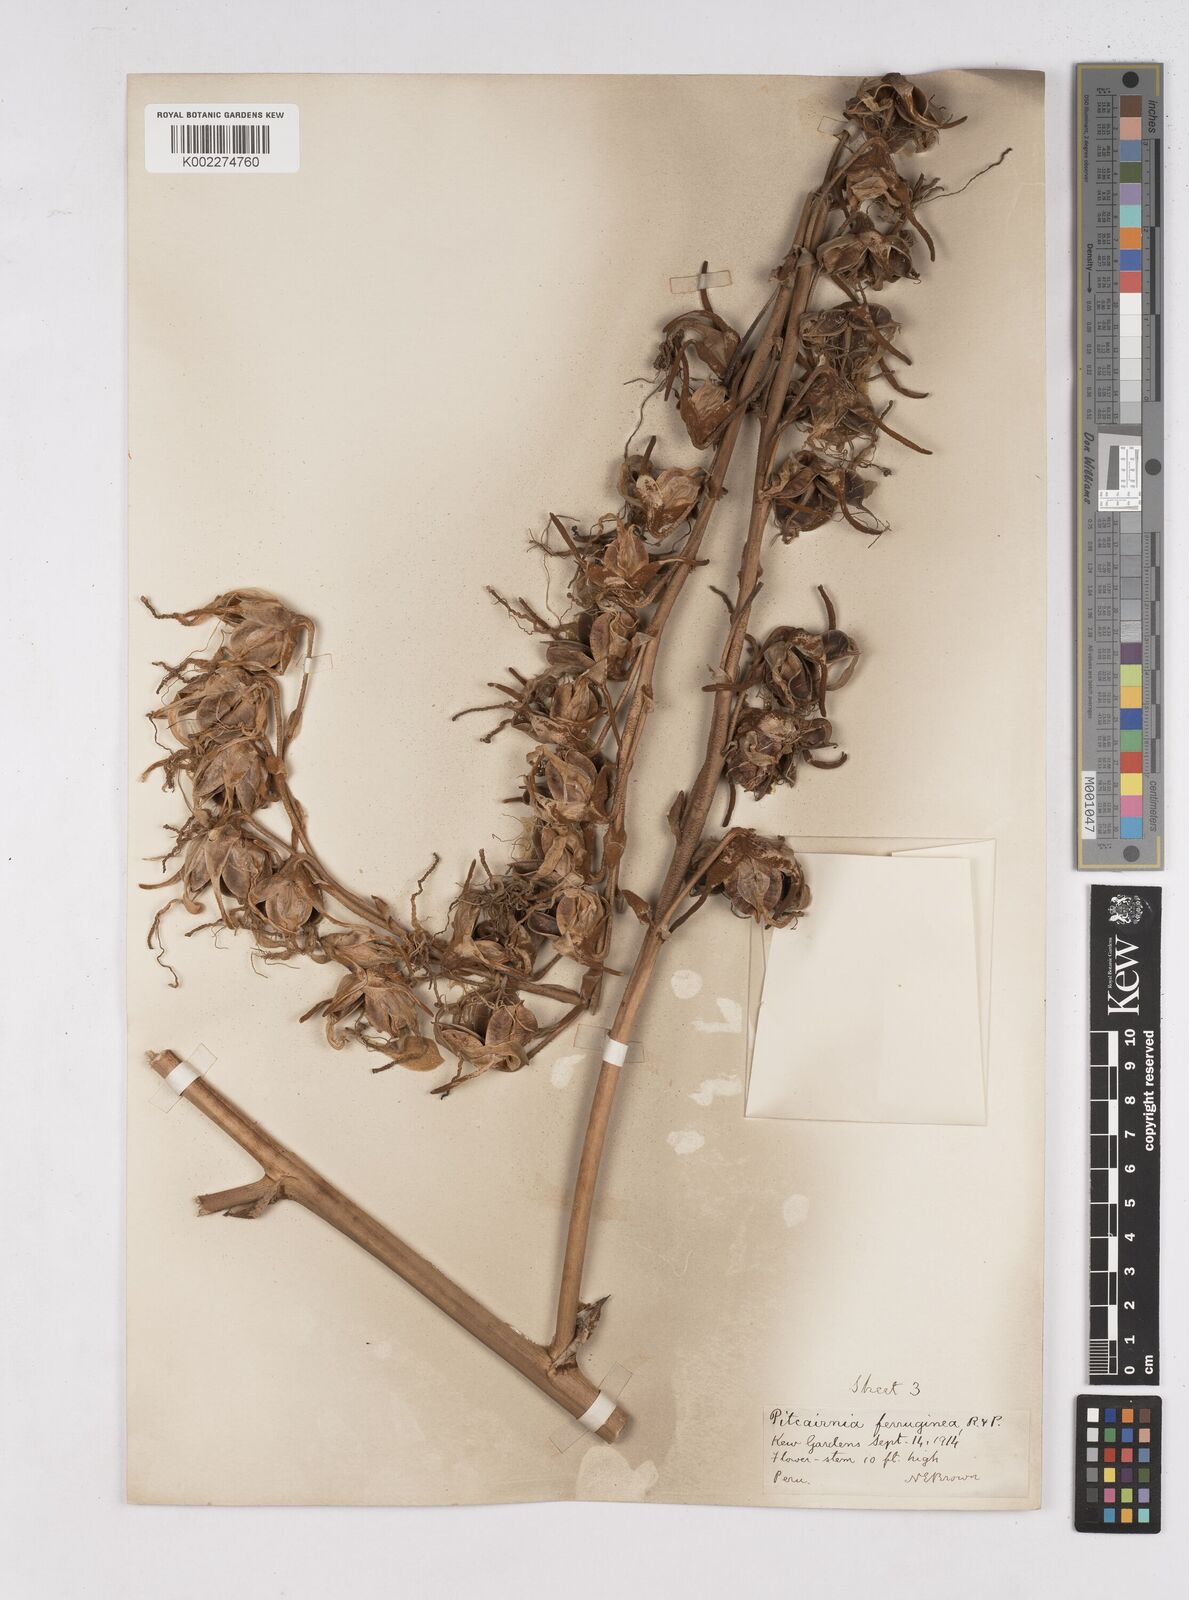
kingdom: Plantae
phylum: Tracheophyta
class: Liliopsida
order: Poales
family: Bromeliaceae
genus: Puya
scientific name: Puya ferruginea
